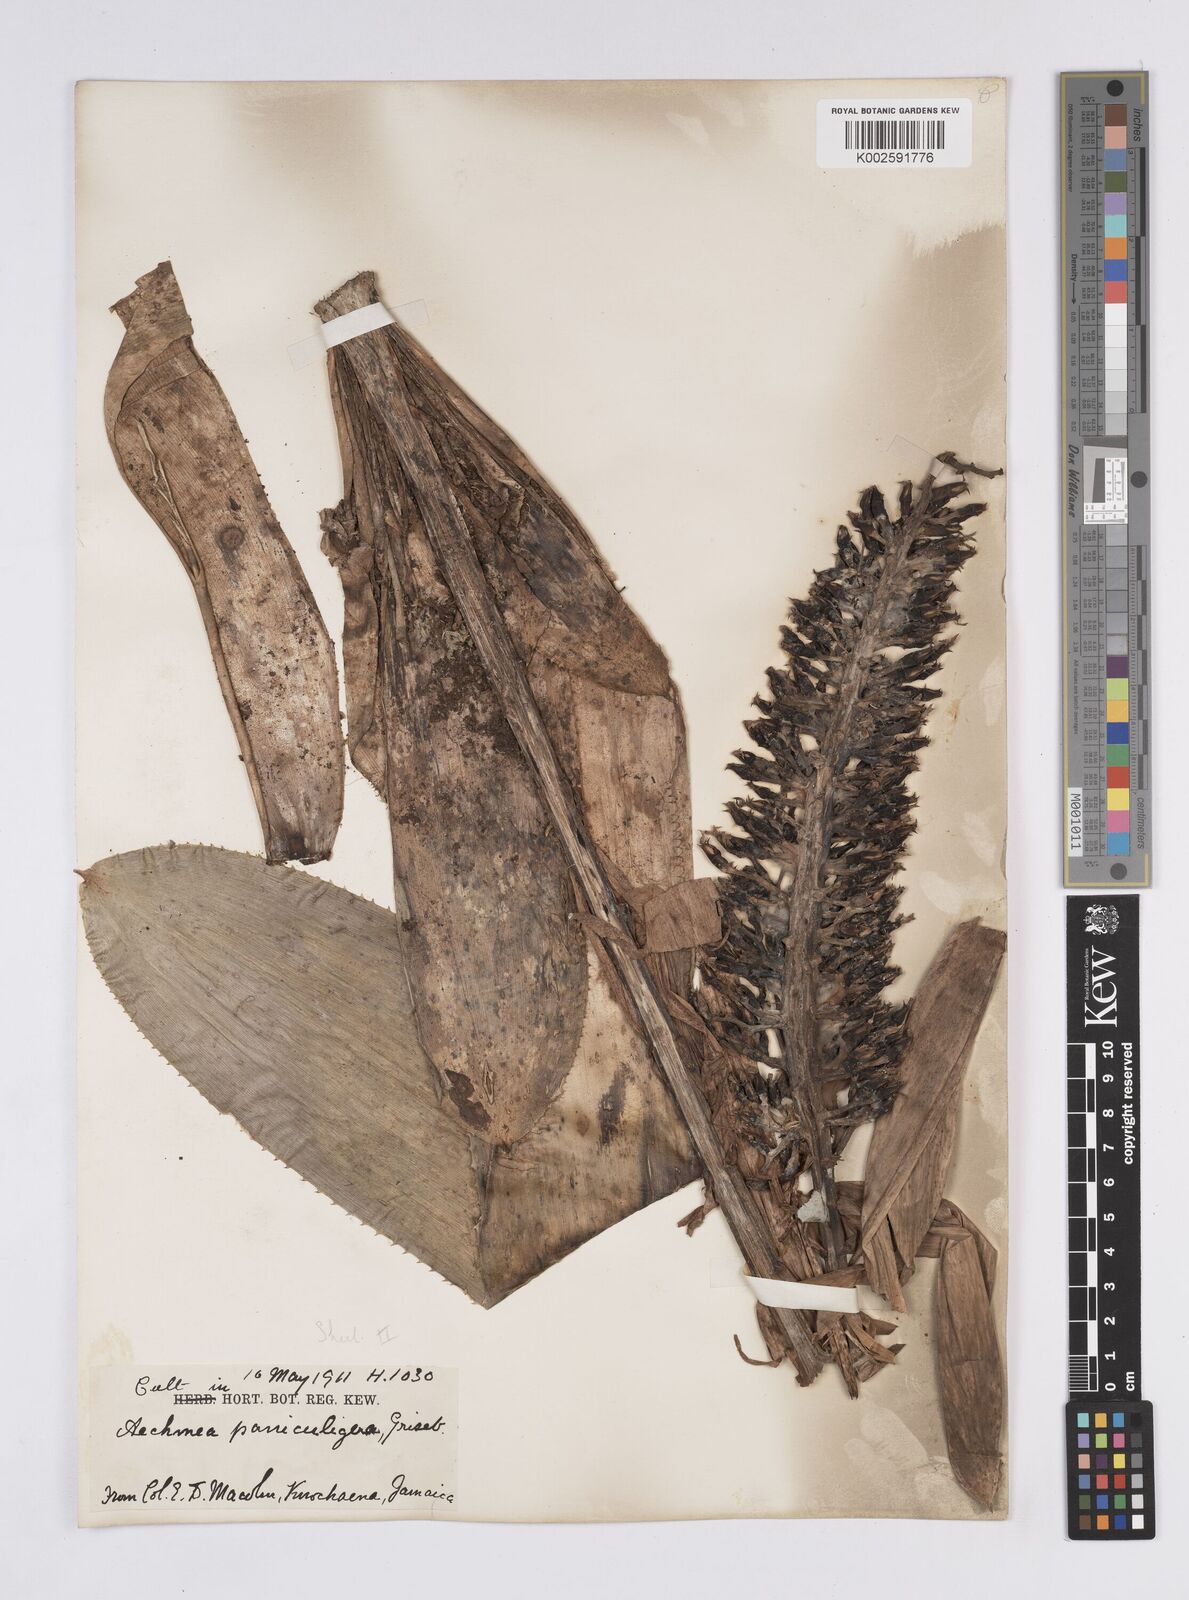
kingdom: Plantae
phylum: Tracheophyta
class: Liliopsida
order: Poales
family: Bromeliaceae
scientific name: Bromeliaceae
